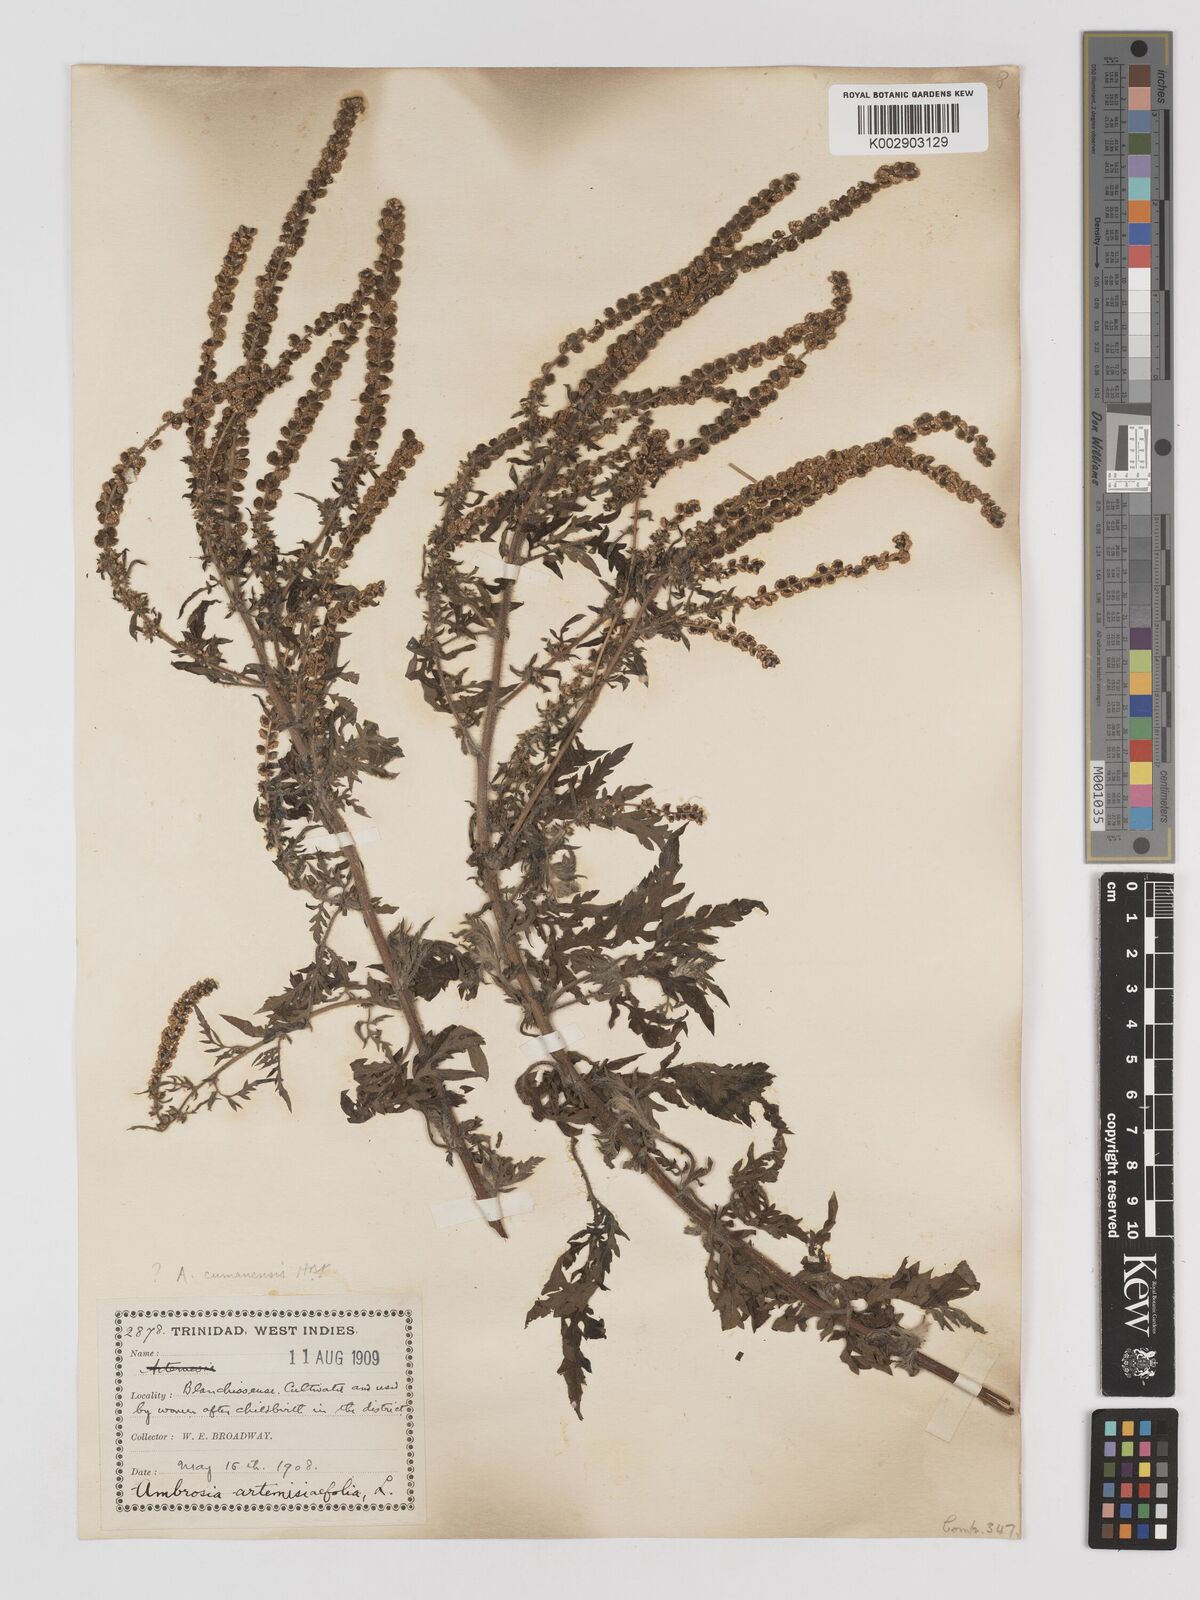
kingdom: Plantae
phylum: Tracheophyta
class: Magnoliopsida
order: Asterales
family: Asteraceae
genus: Ambrosia
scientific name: Ambrosia cumanensis
